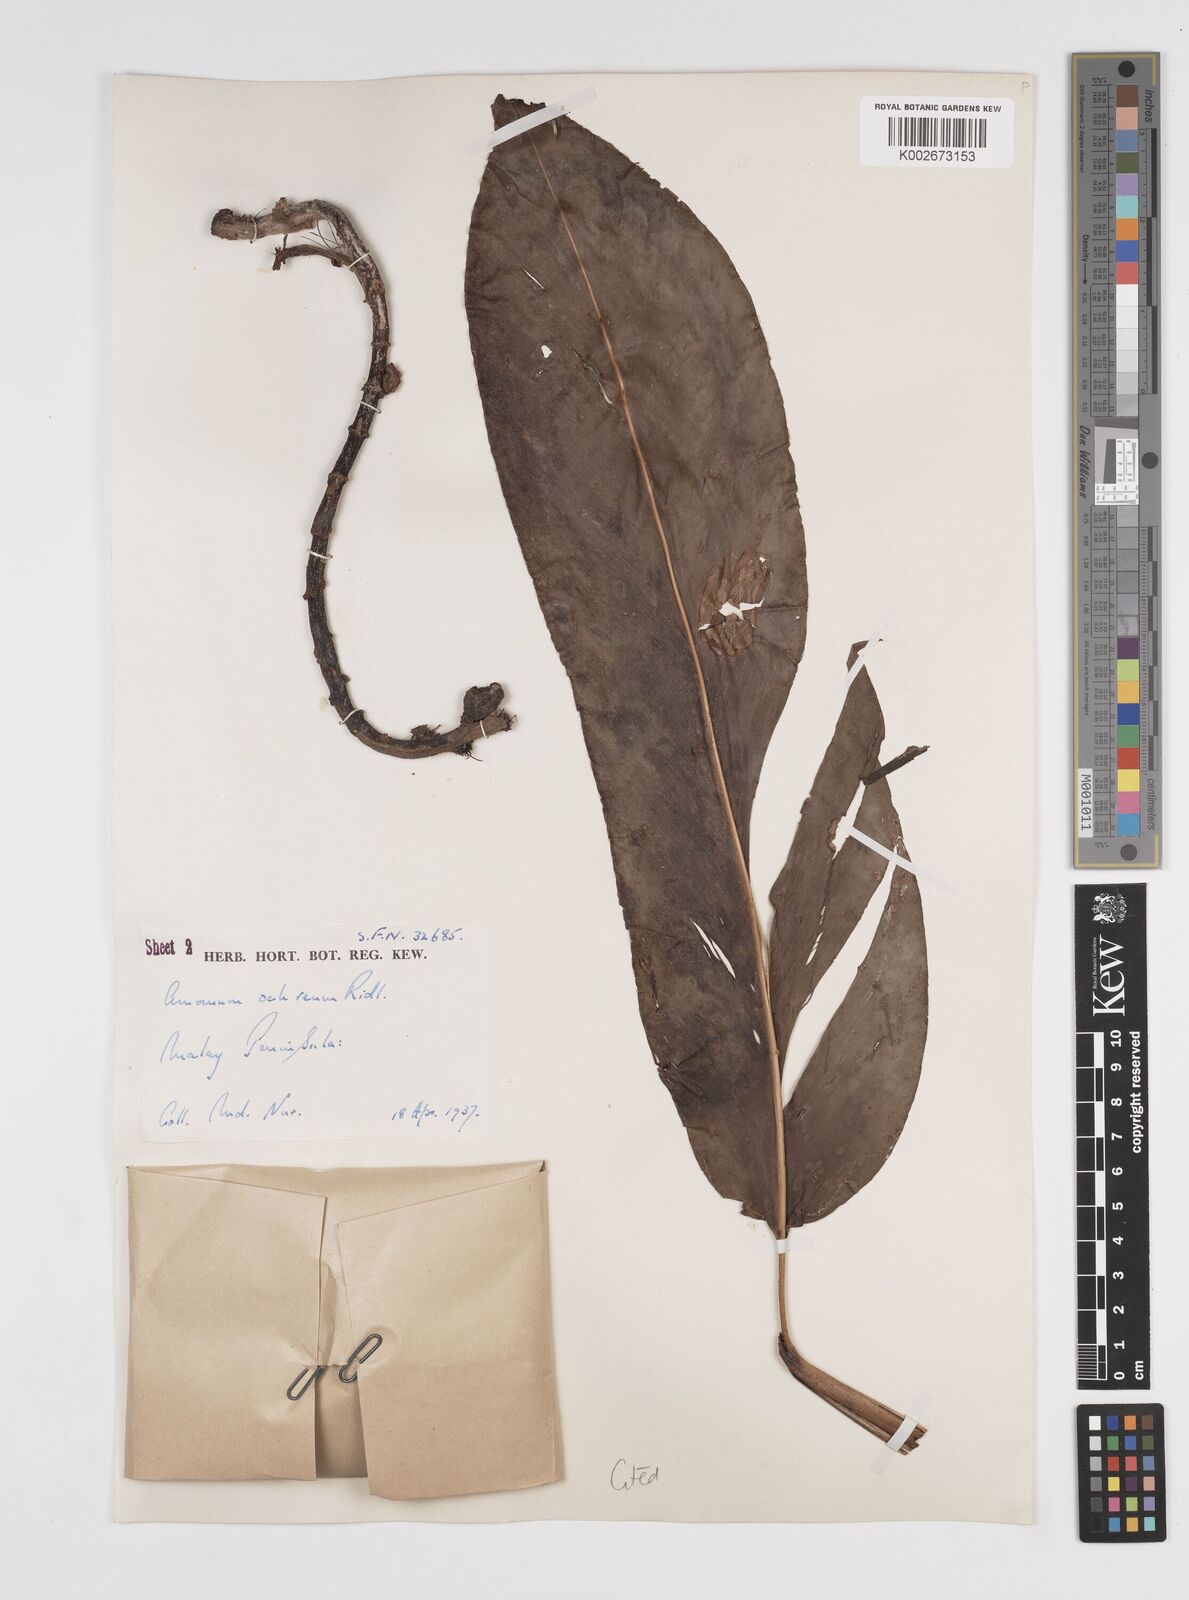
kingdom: Plantae
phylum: Tracheophyta
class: Liliopsida
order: Zingiberales
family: Zingiberaceae
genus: Meistera
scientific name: Meistera ochrea
